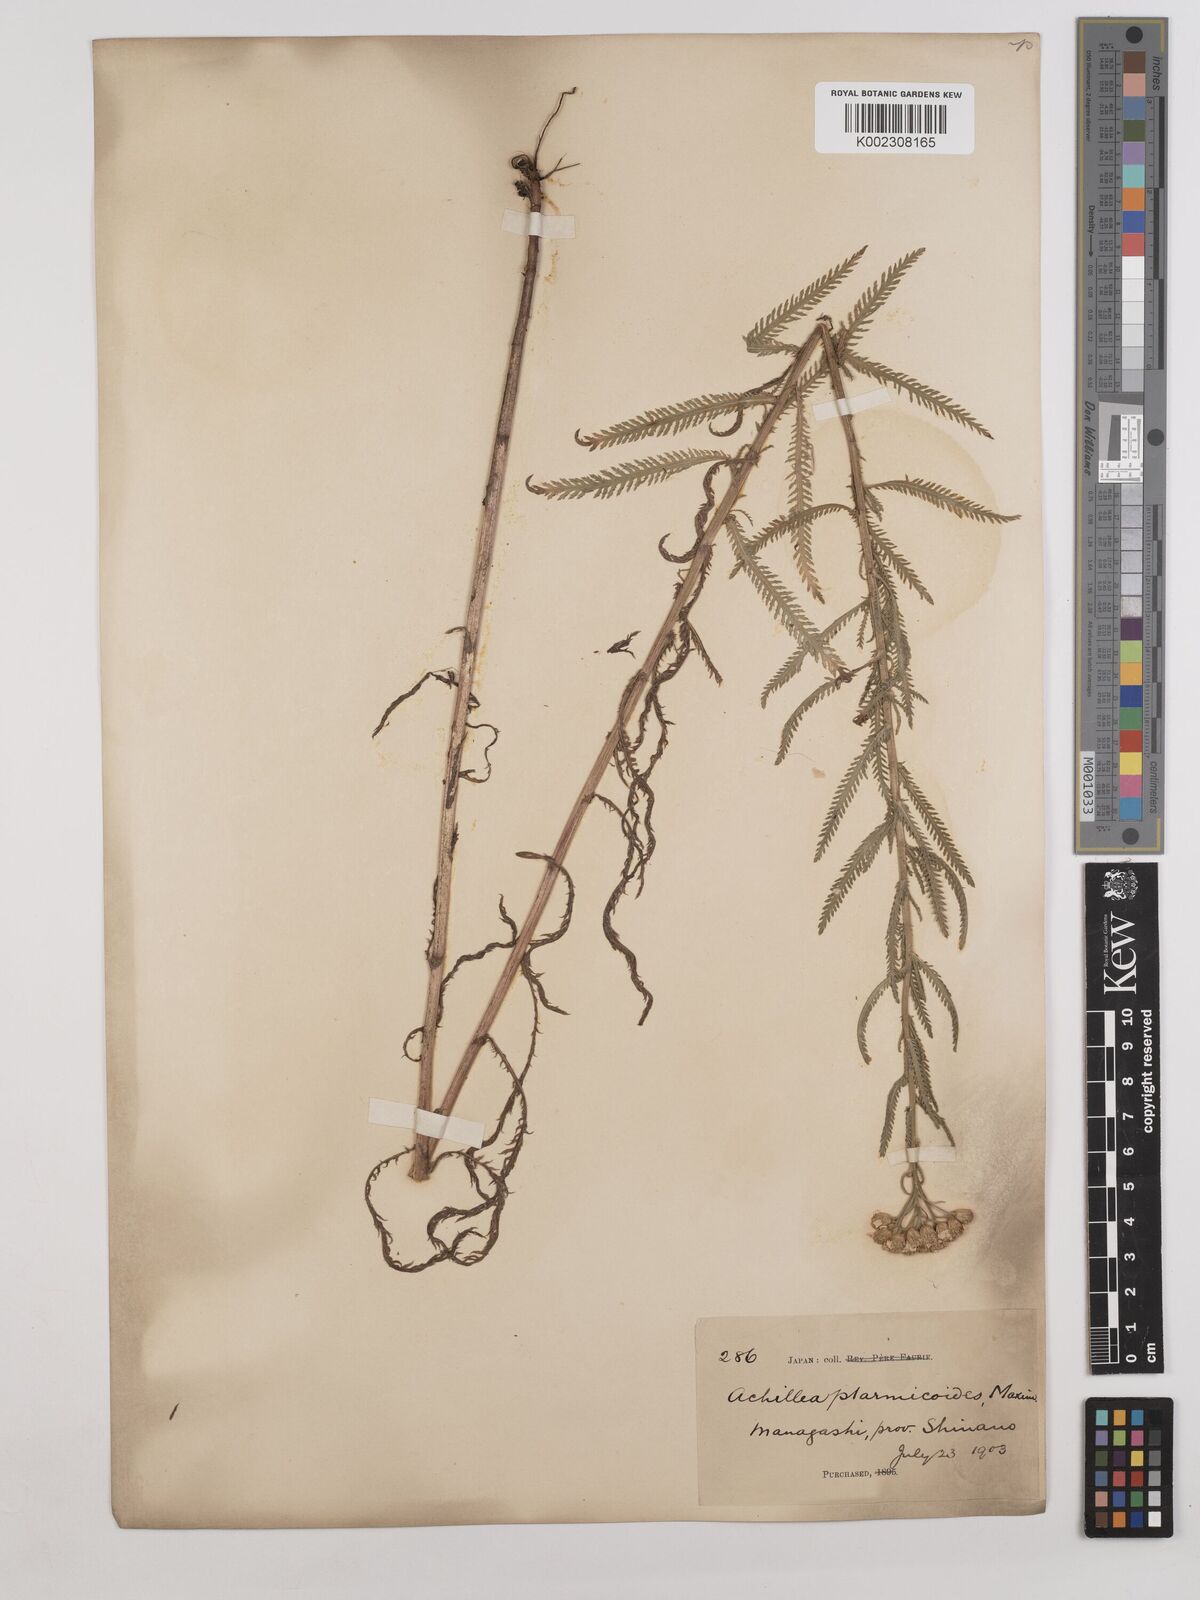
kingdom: Plantae
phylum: Tracheophyta
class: Magnoliopsida
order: Asterales
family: Asteraceae
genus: Achillea
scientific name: Achillea ptarmicoides
